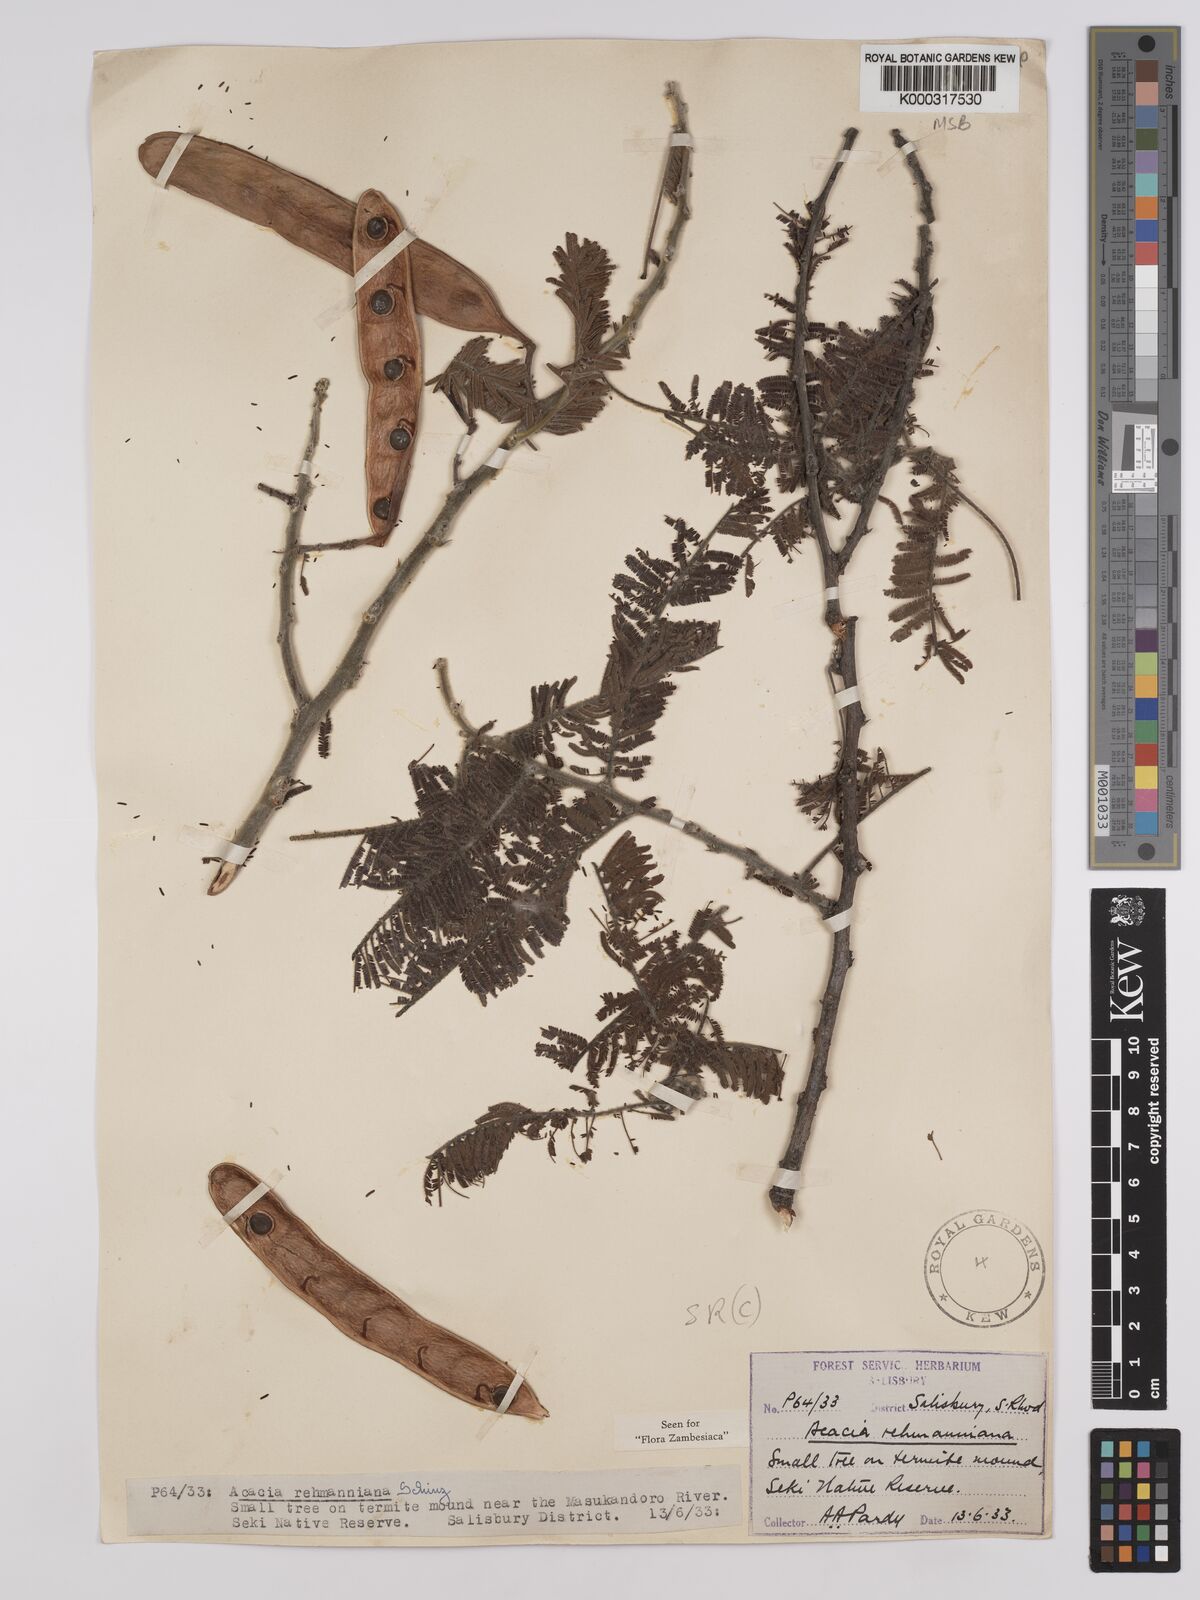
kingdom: Plantae
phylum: Tracheophyta
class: Magnoliopsida
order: Fabales
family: Fabaceae
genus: Vachellia
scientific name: Vachellia rehmanniana
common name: Silky thorn
